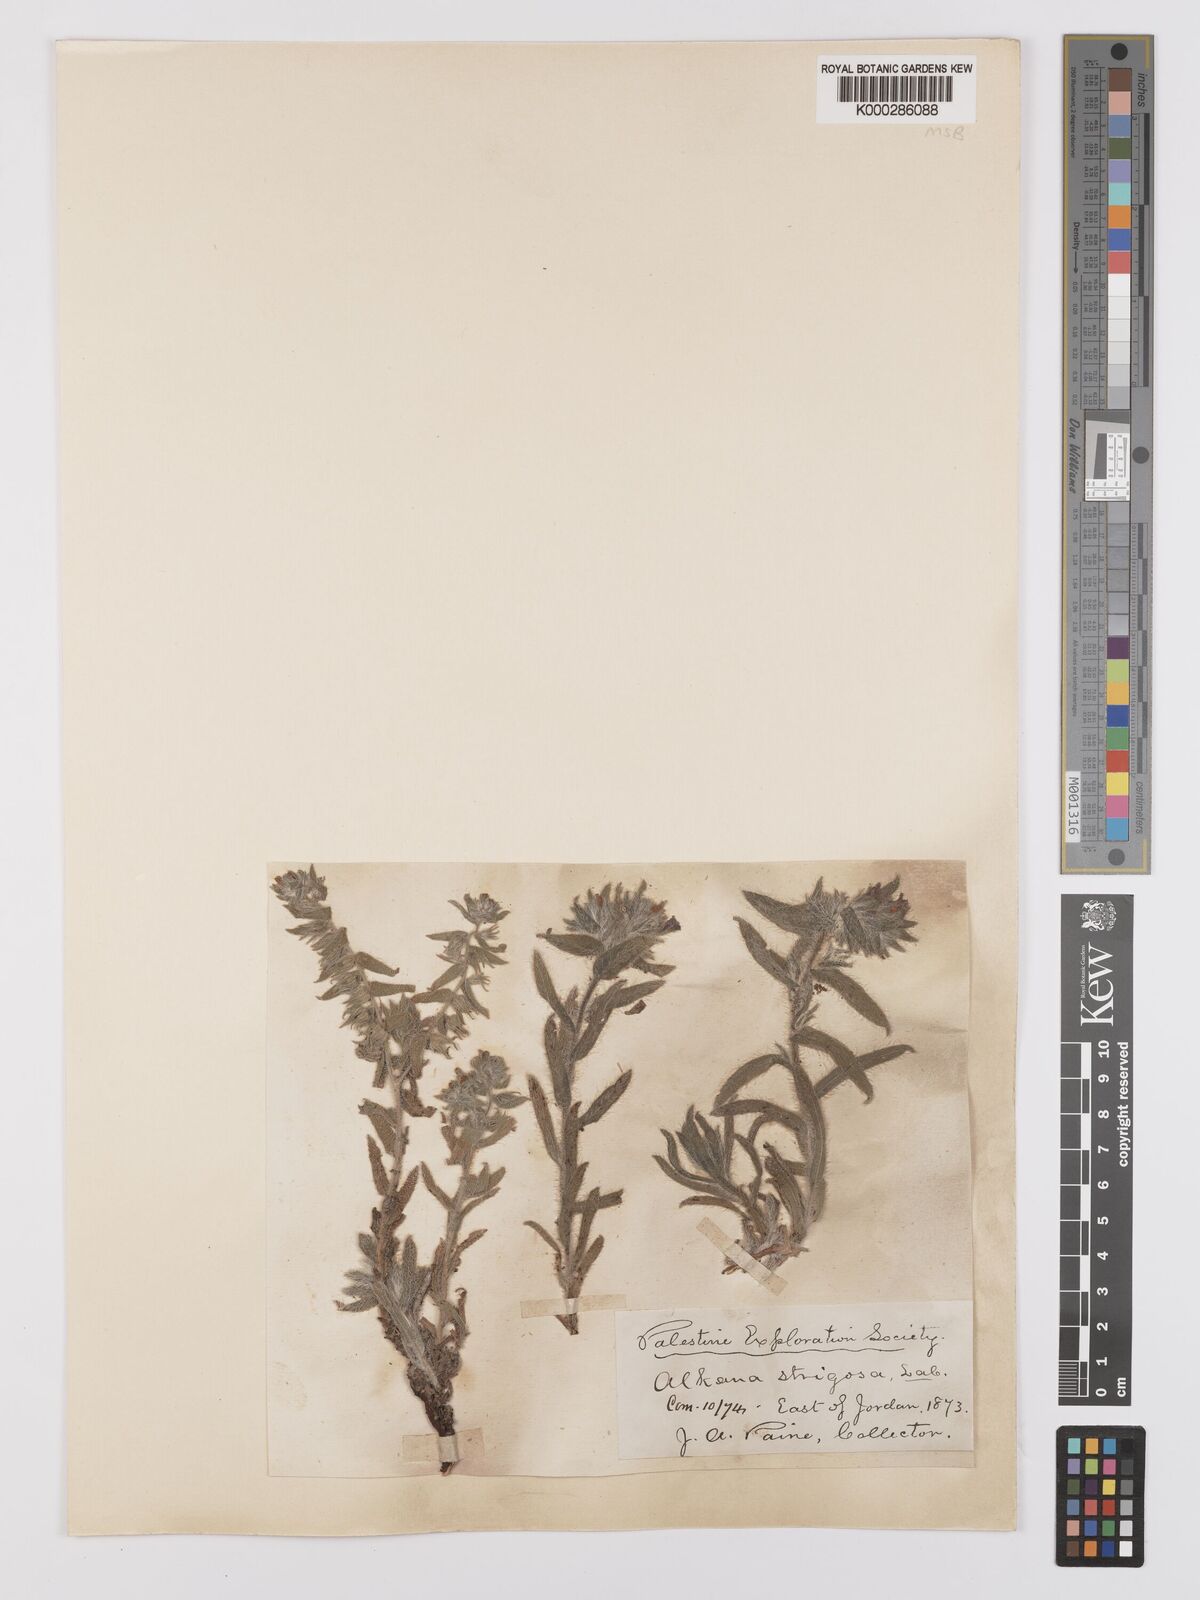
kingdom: Plantae
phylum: Tracheophyta
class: Magnoliopsida
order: Boraginales
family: Boraginaceae
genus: Alkanna
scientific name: Alkanna strigosa
